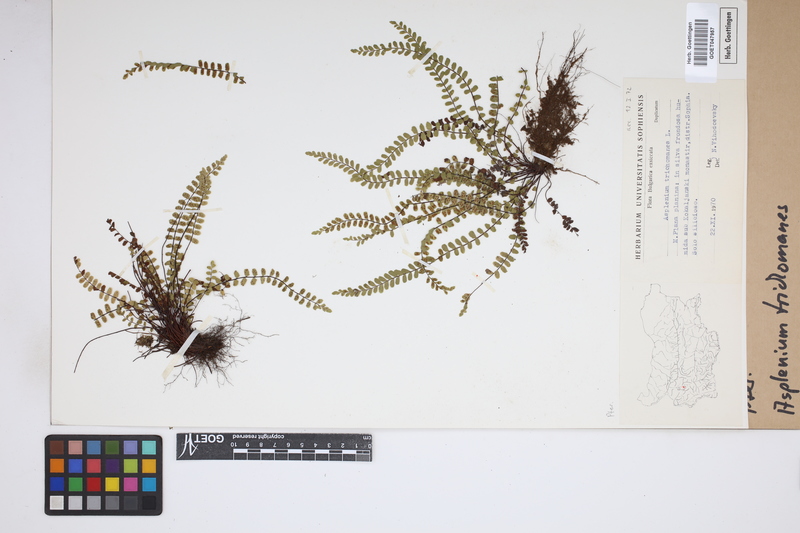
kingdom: Plantae
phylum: Tracheophyta
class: Polypodiopsida
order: Polypodiales
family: Aspleniaceae
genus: Asplenium
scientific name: Asplenium trichomanes
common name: Maidenhair spleenwort
